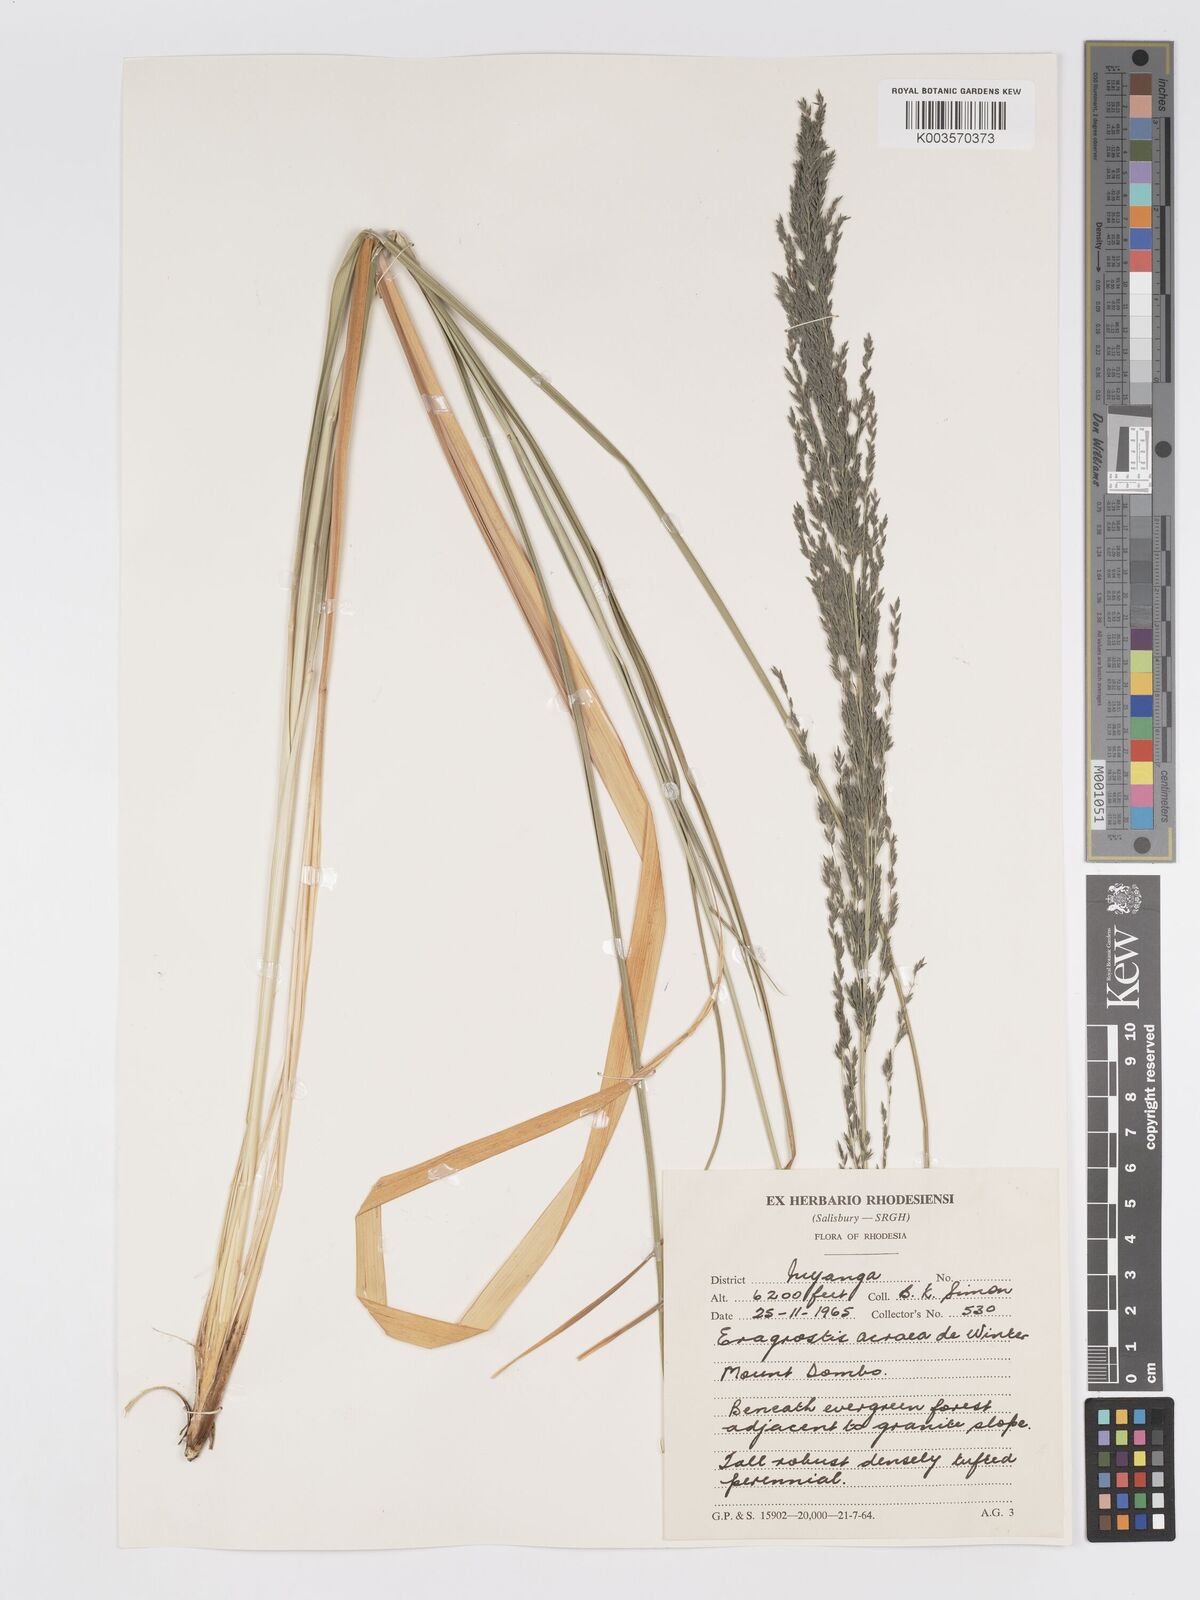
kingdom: Plantae
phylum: Tracheophyta
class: Liliopsida
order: Poales
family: Poaceae
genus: Eragrostis
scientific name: Eragrostis acraea
